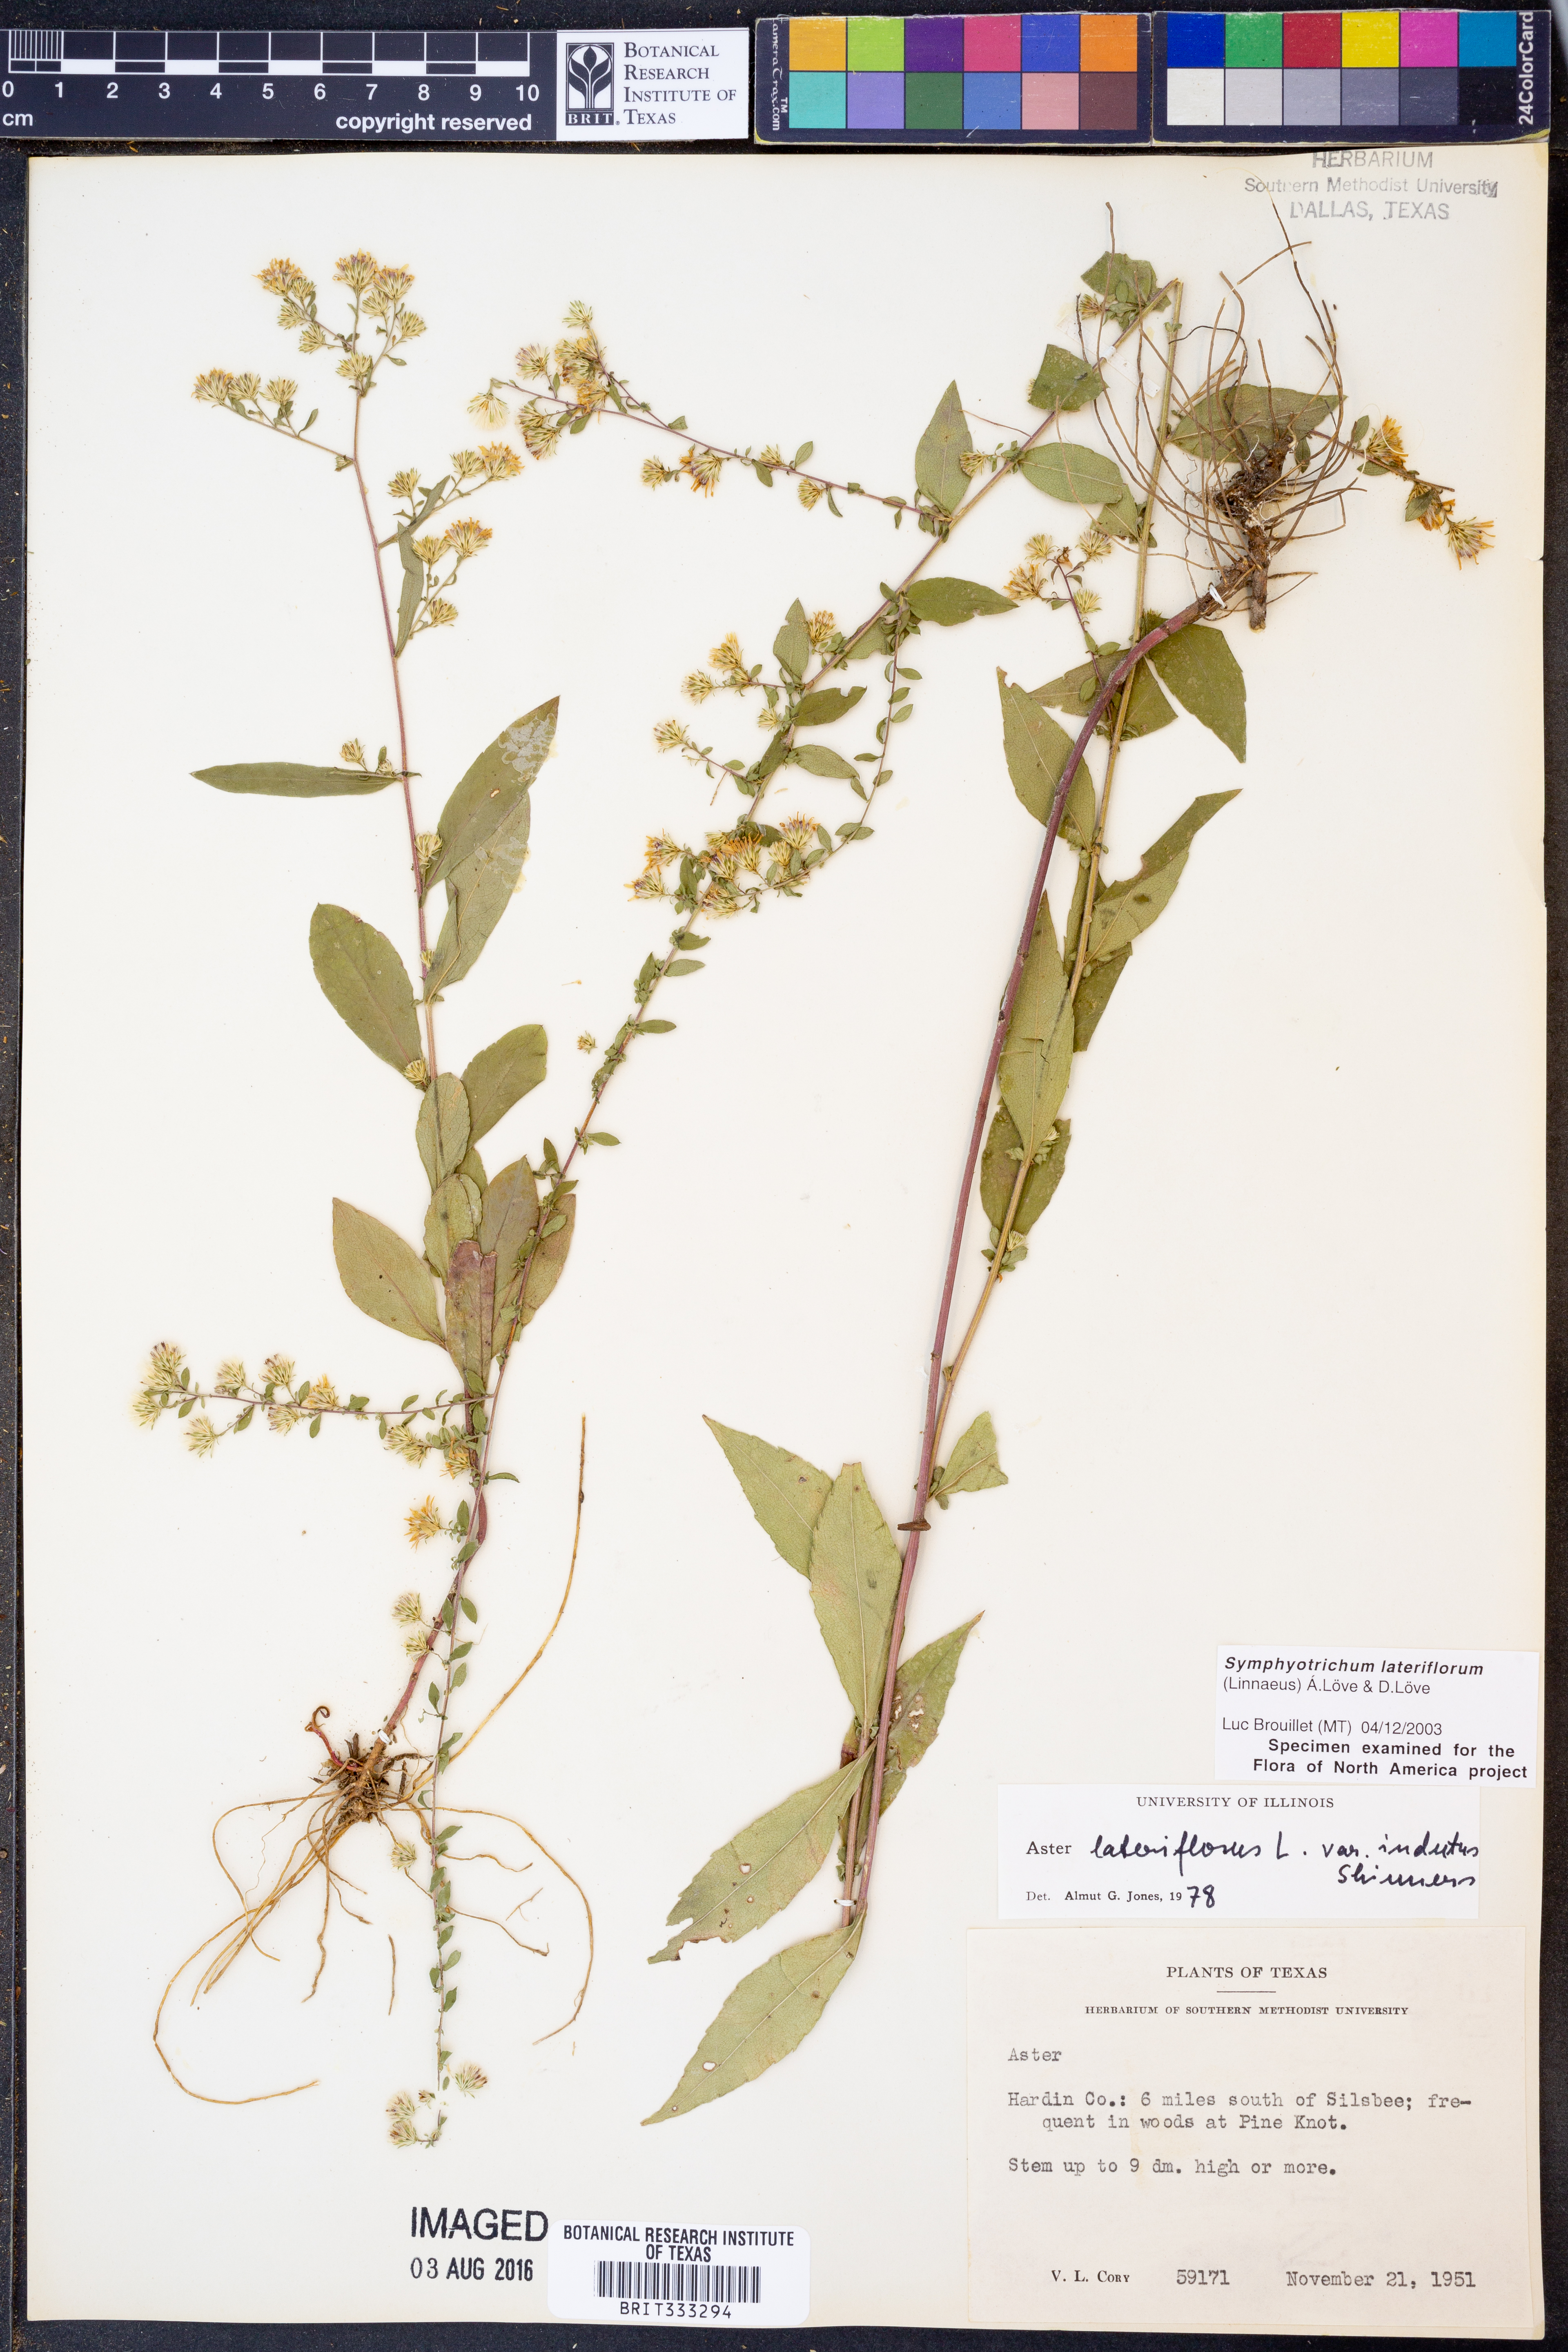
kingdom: Plantae
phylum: Tracheophyta
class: Magnoliopsida
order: Asterales
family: Asteraceae
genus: Symphyotrichum
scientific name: Symphyotrichum lateriflorum
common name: Calico aster
